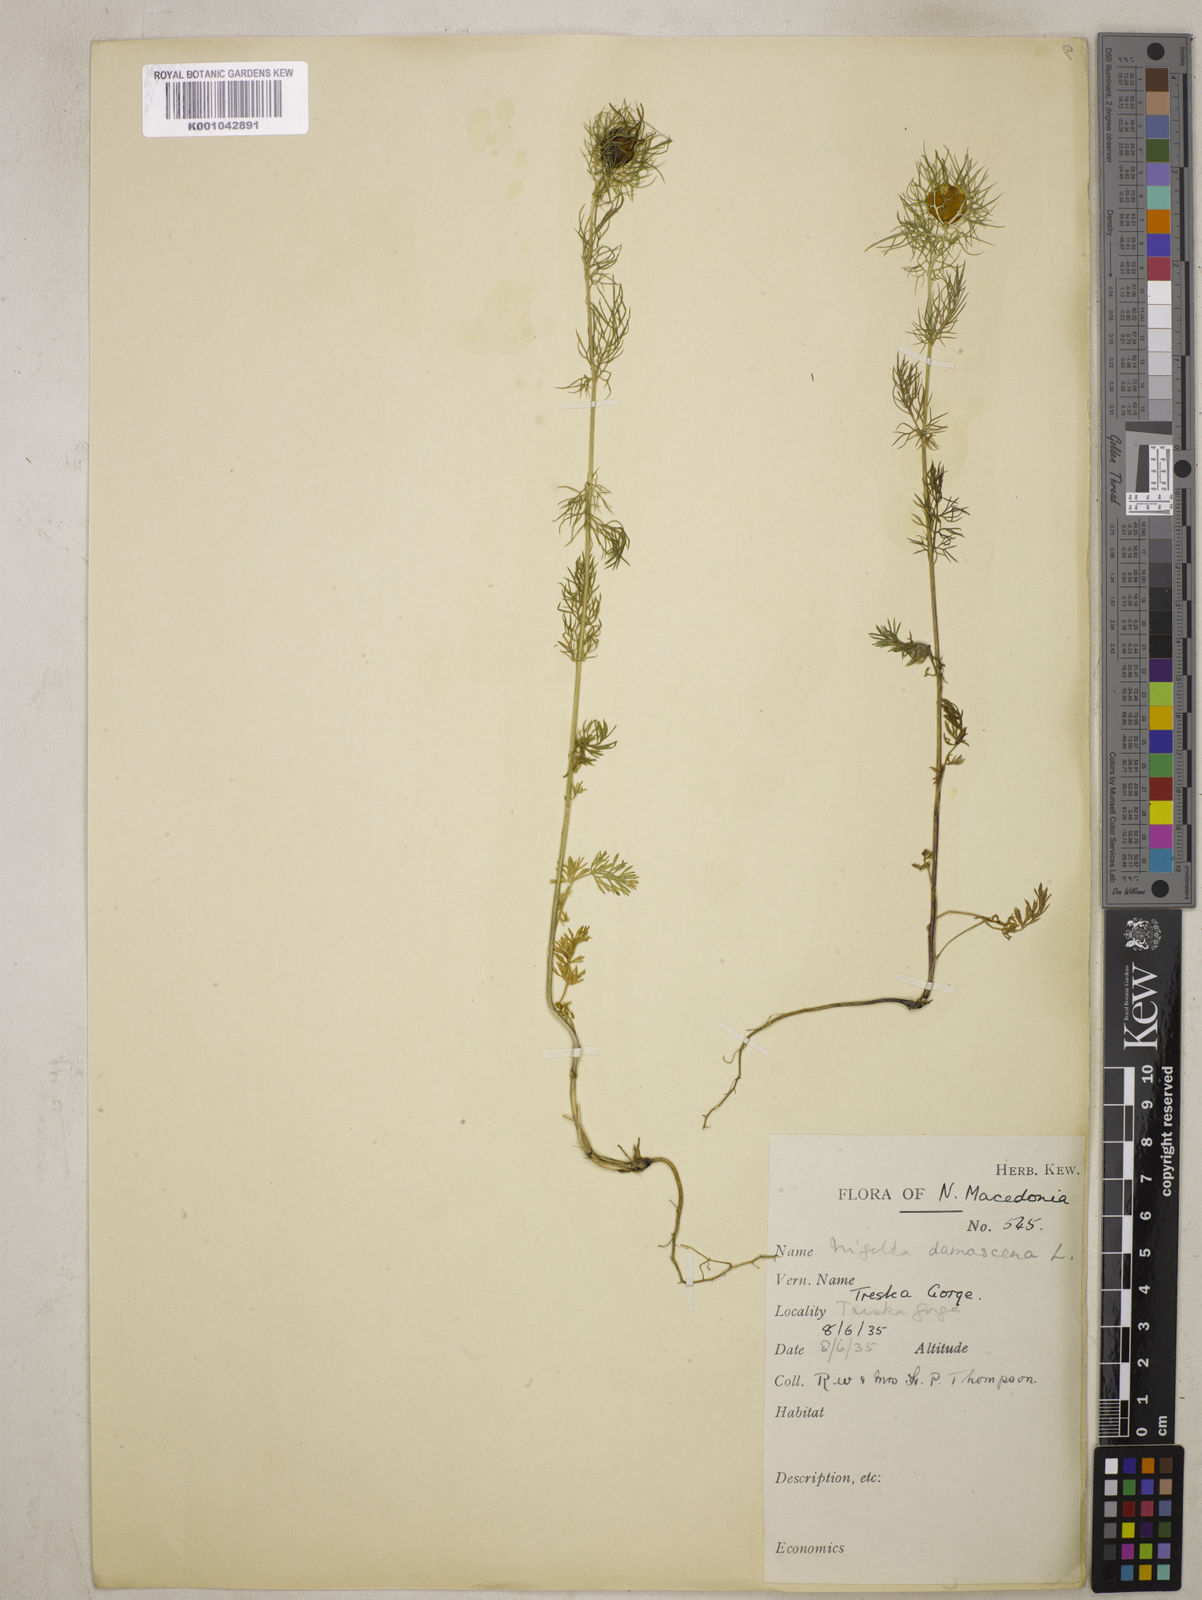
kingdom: Plantae
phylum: Tracheophyta
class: Magnoliopsida
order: Ranunculales
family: Ranunculaceae
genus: Nigella
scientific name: Nigella damascena
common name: Love-in-a-mist
